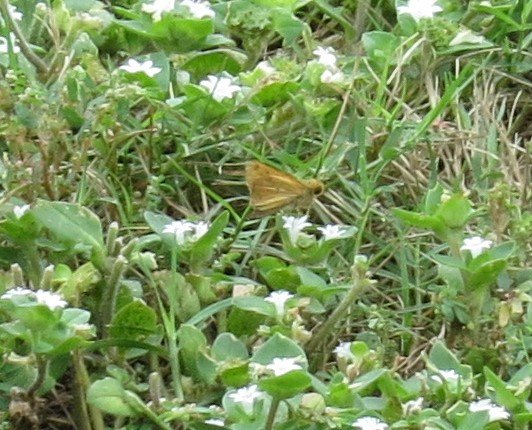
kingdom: Animalia
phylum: Arthropoda
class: Insecta
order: Lepidoptera
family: Hesperiidae
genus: Hylephila
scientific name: Hylephila phyleus
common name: Fiery Skipper
